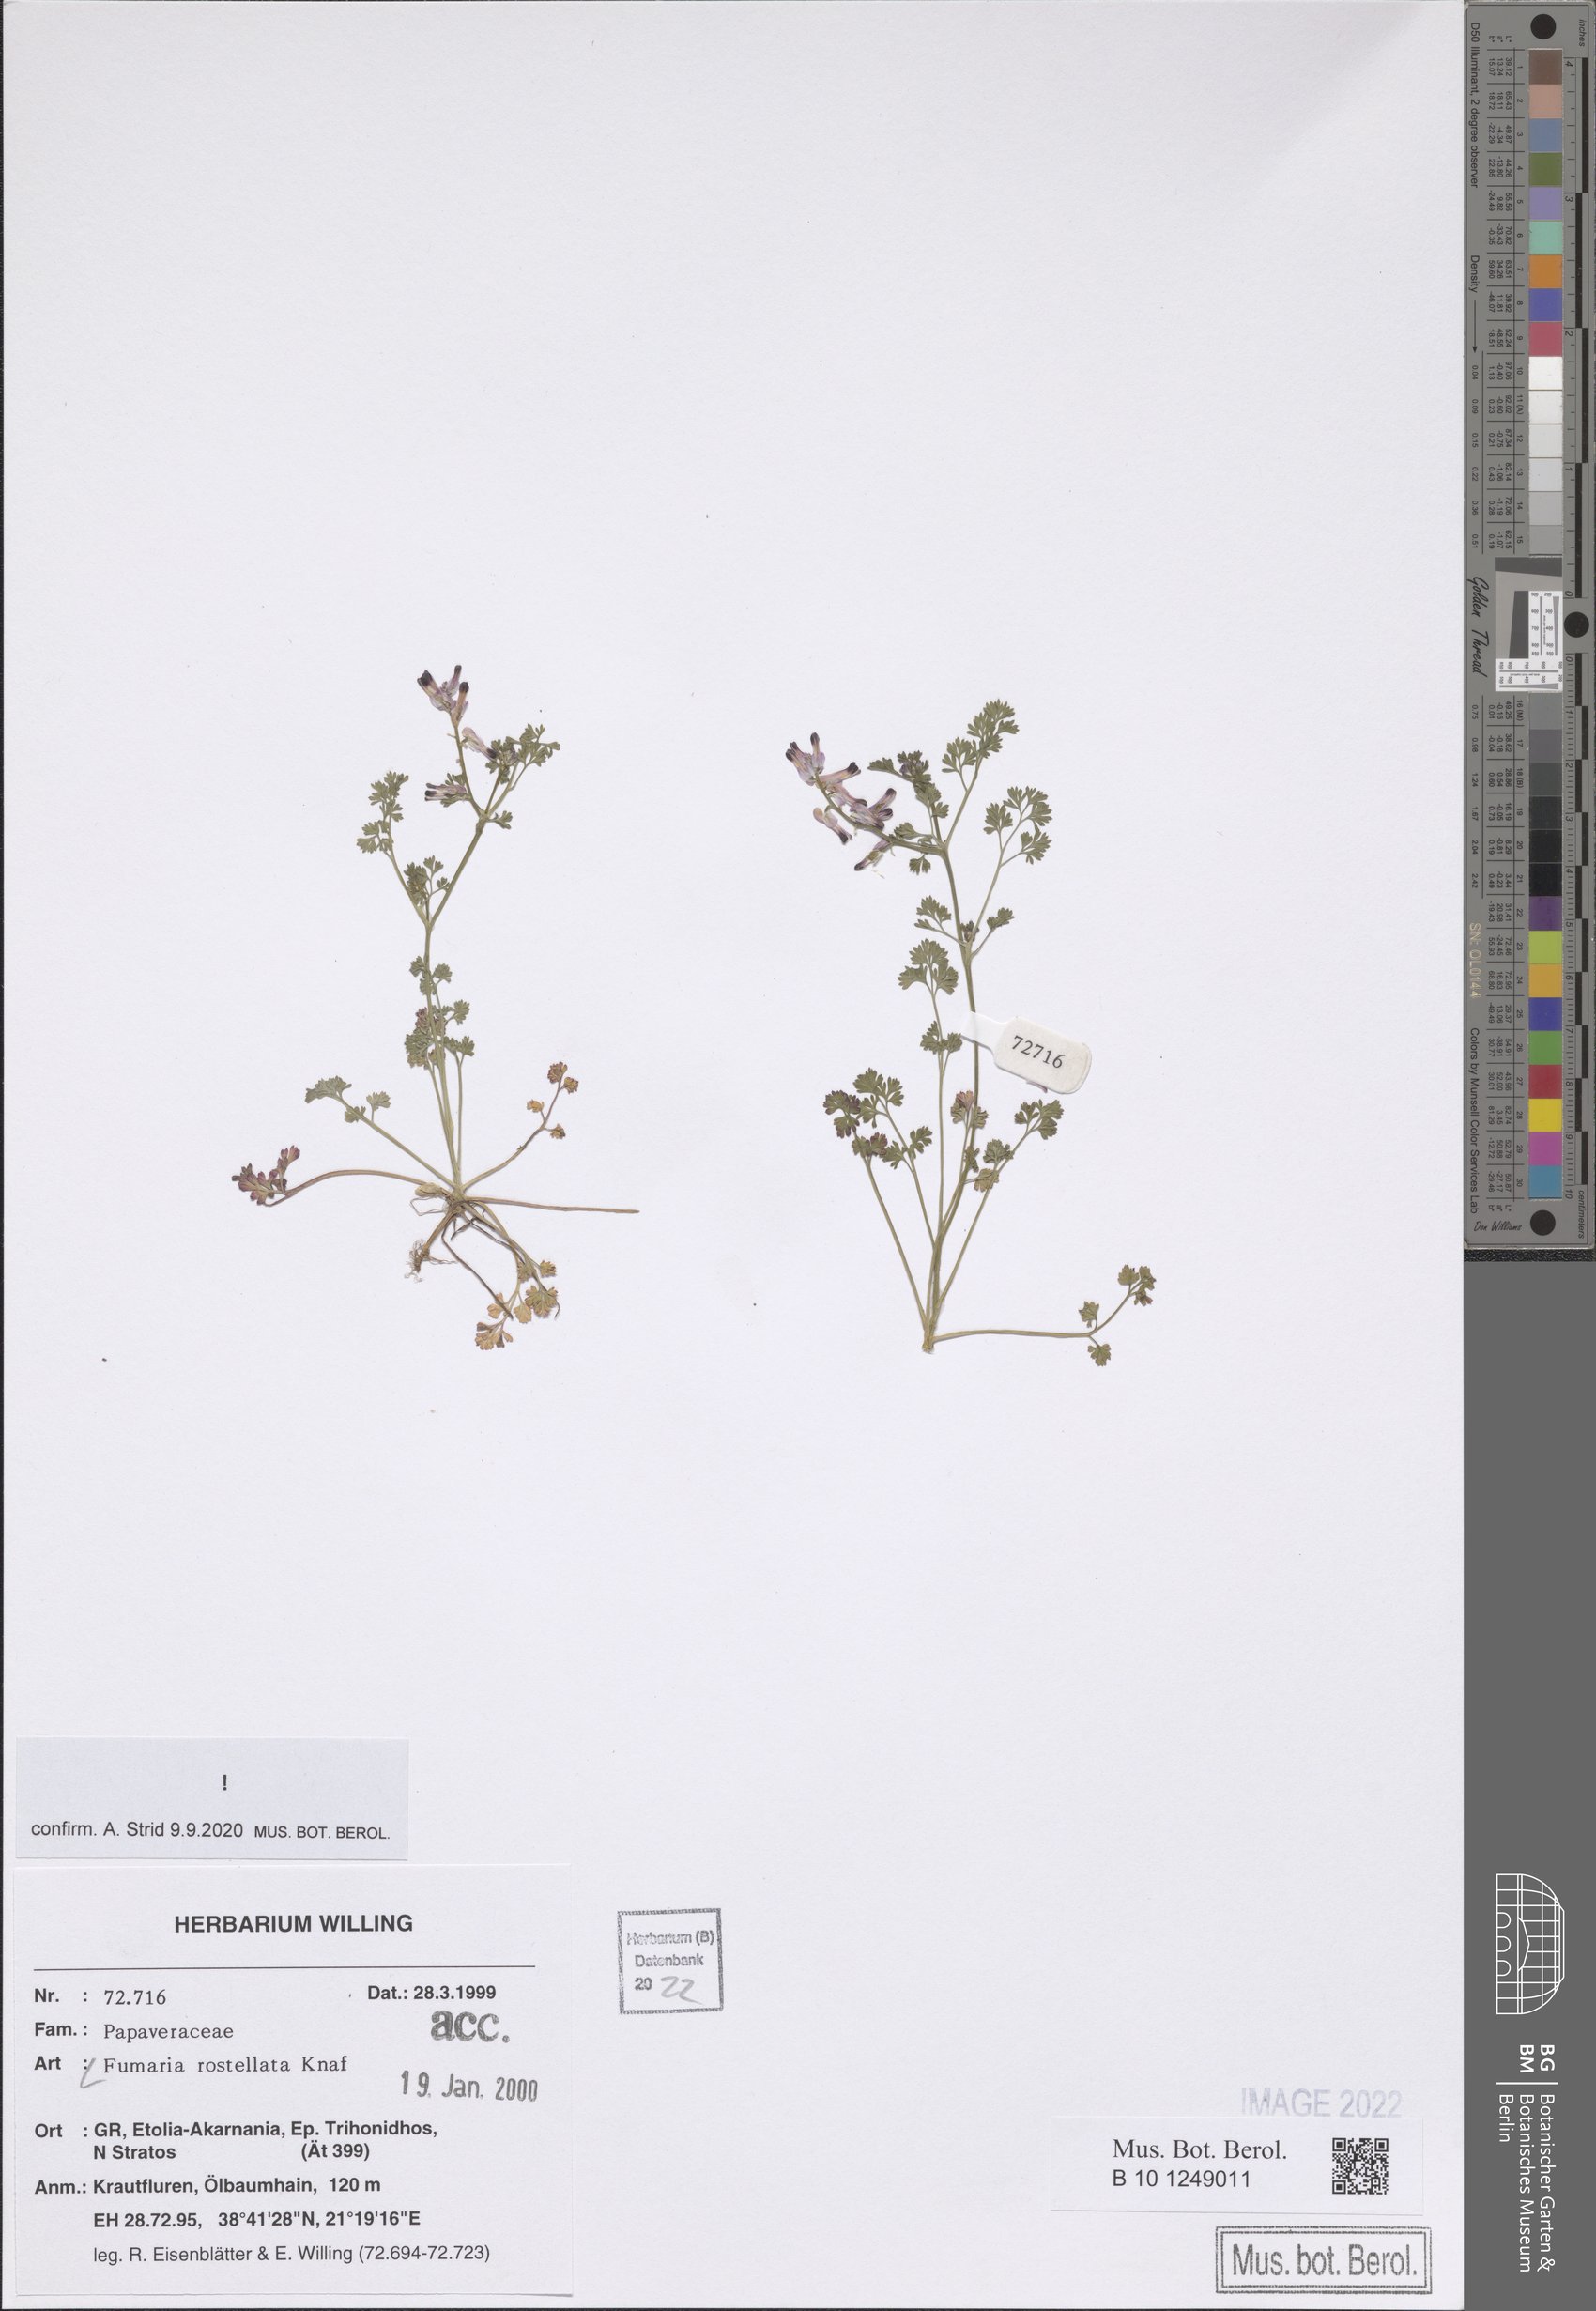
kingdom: Plantae
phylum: Tracheophyta
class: Magnoliopsida
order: Ranunculales
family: Papaveraceae
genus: Fumaria
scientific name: Fumaria rostellata
